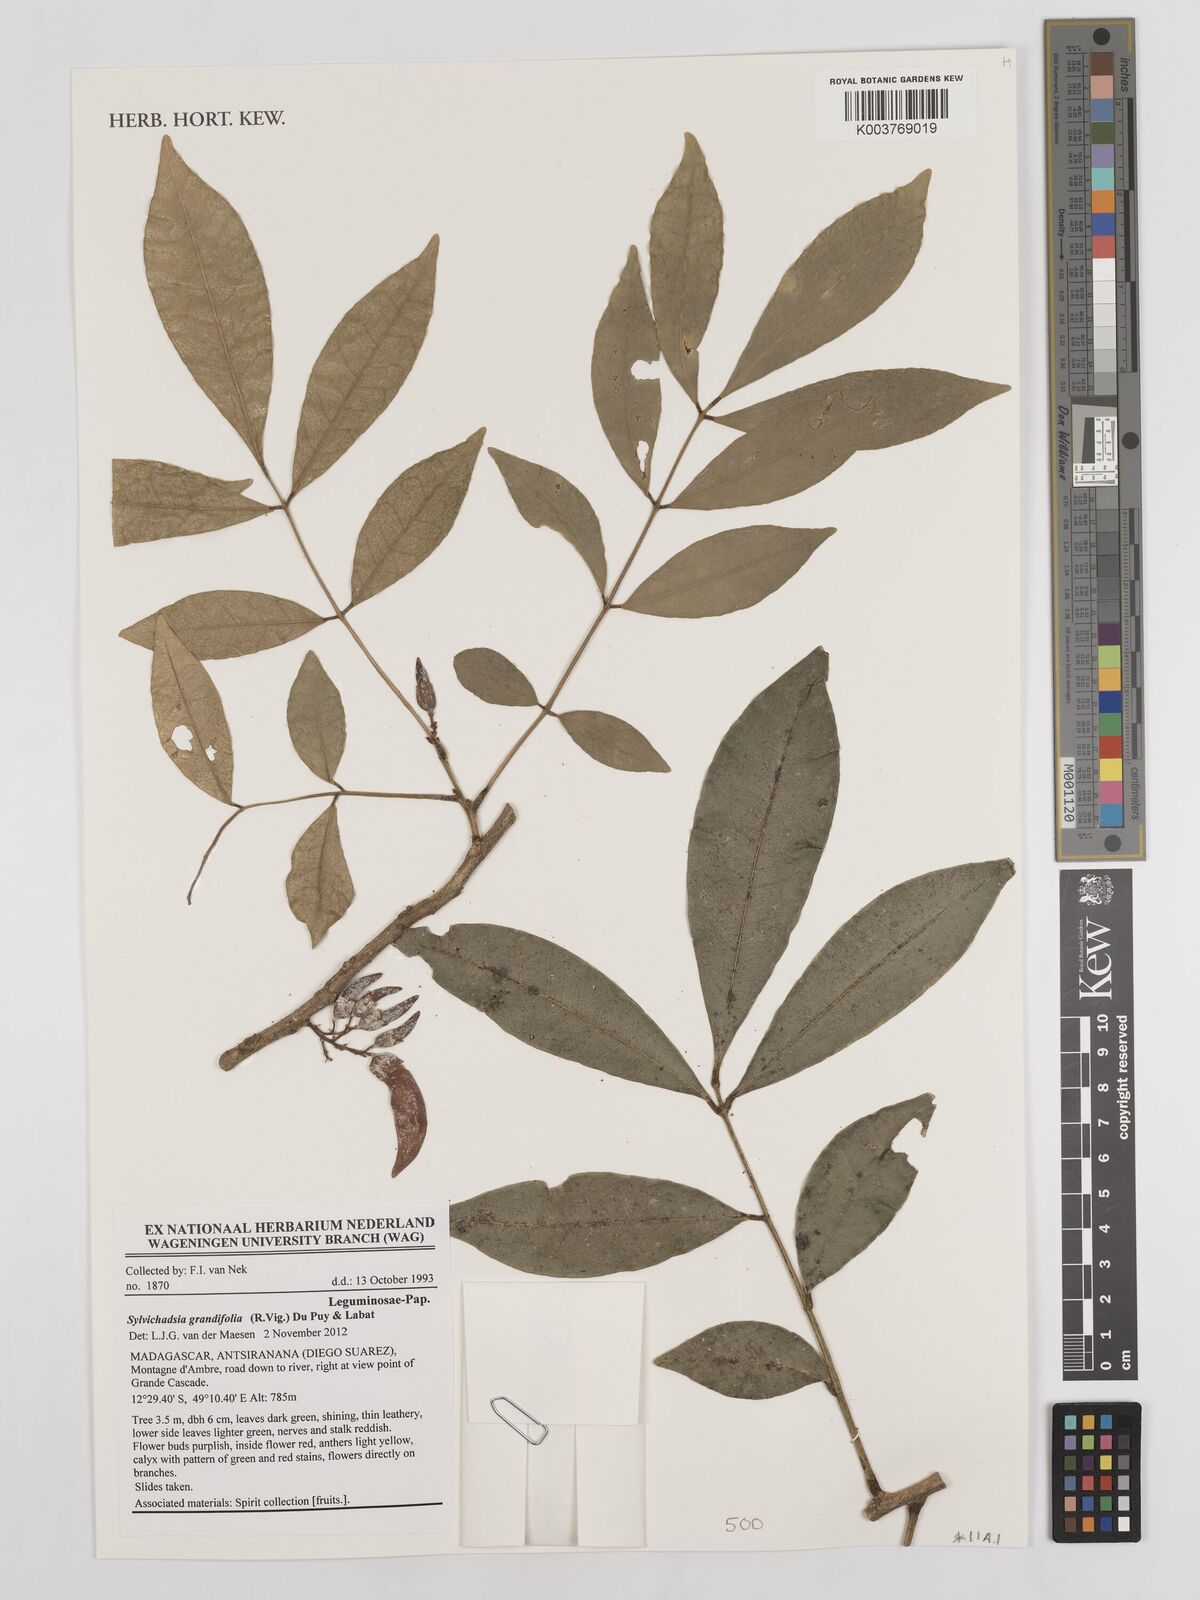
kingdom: Plantae
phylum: Tracheophyta
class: Magnoliopsida
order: Fabales
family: Fabaceae
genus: Sylvichadsia
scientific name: Sylvichadsia grandifolia
